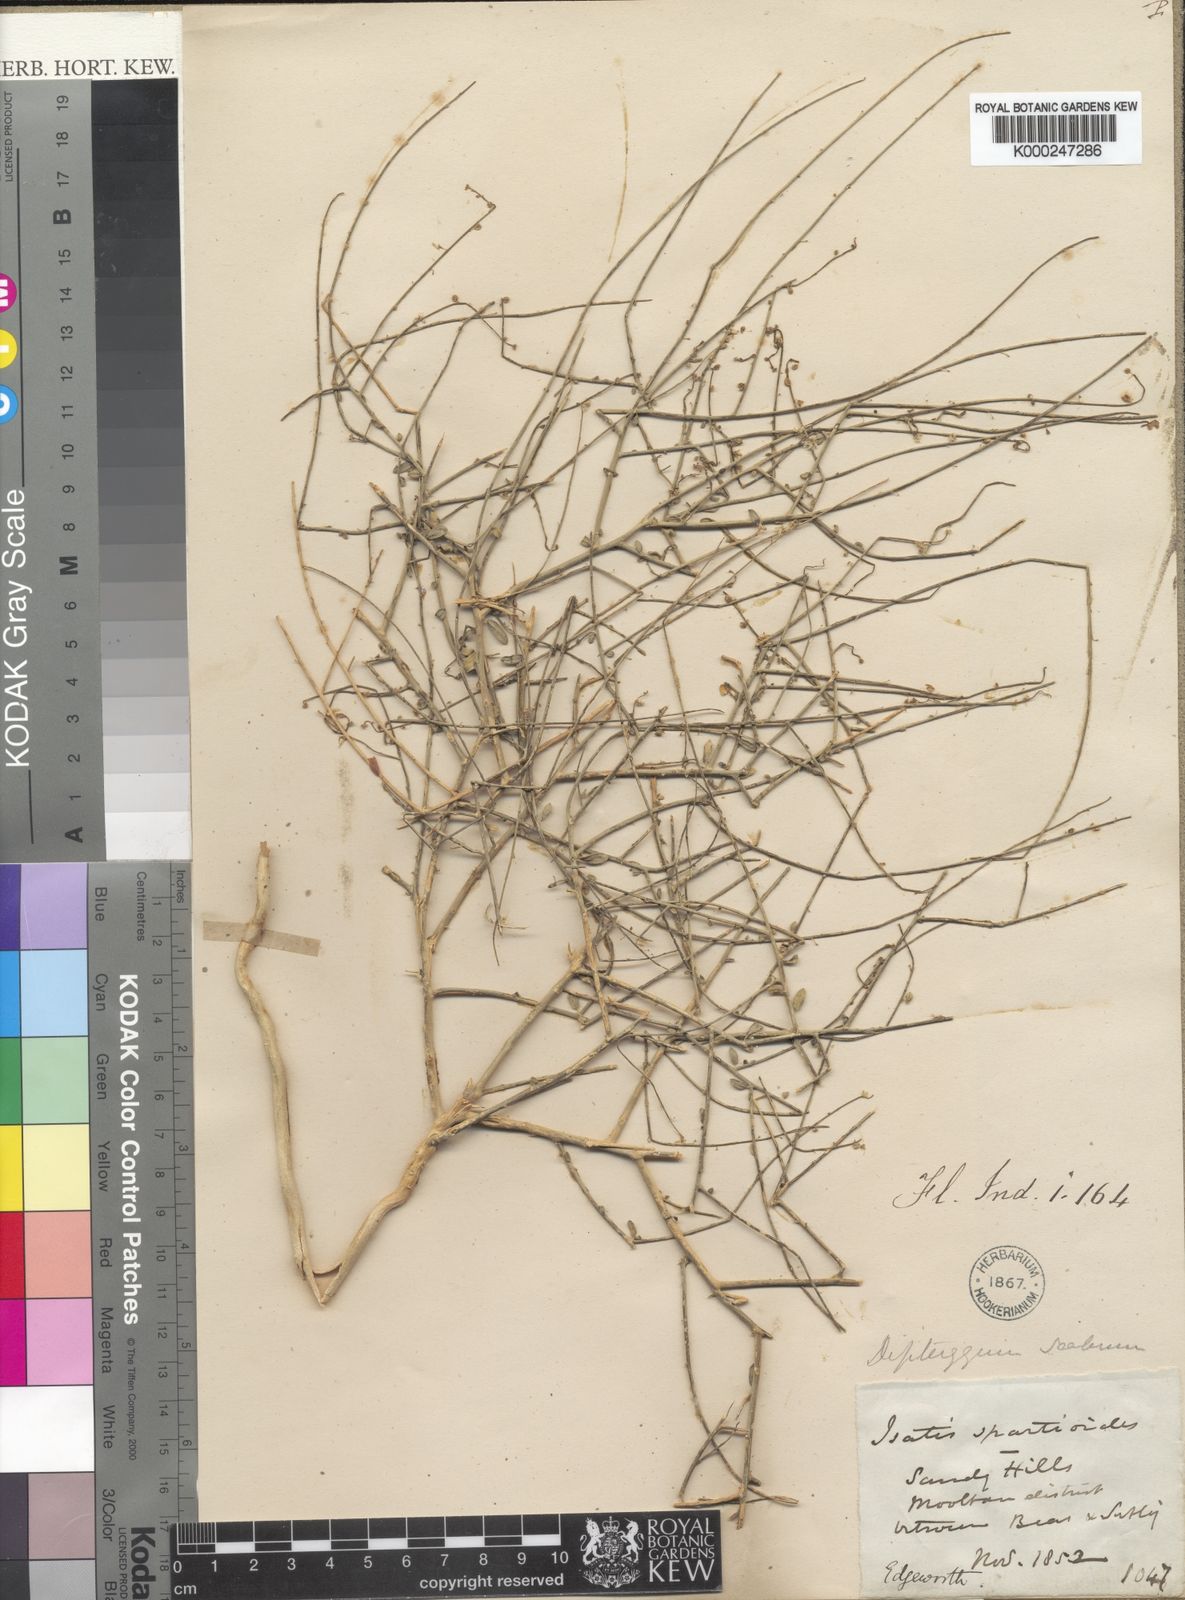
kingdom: Plantae
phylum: Tracheophyta
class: Magnoliopsida
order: Brassicales
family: Cleomaceae
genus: Dipterygium
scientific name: Dipterygium glaucum
